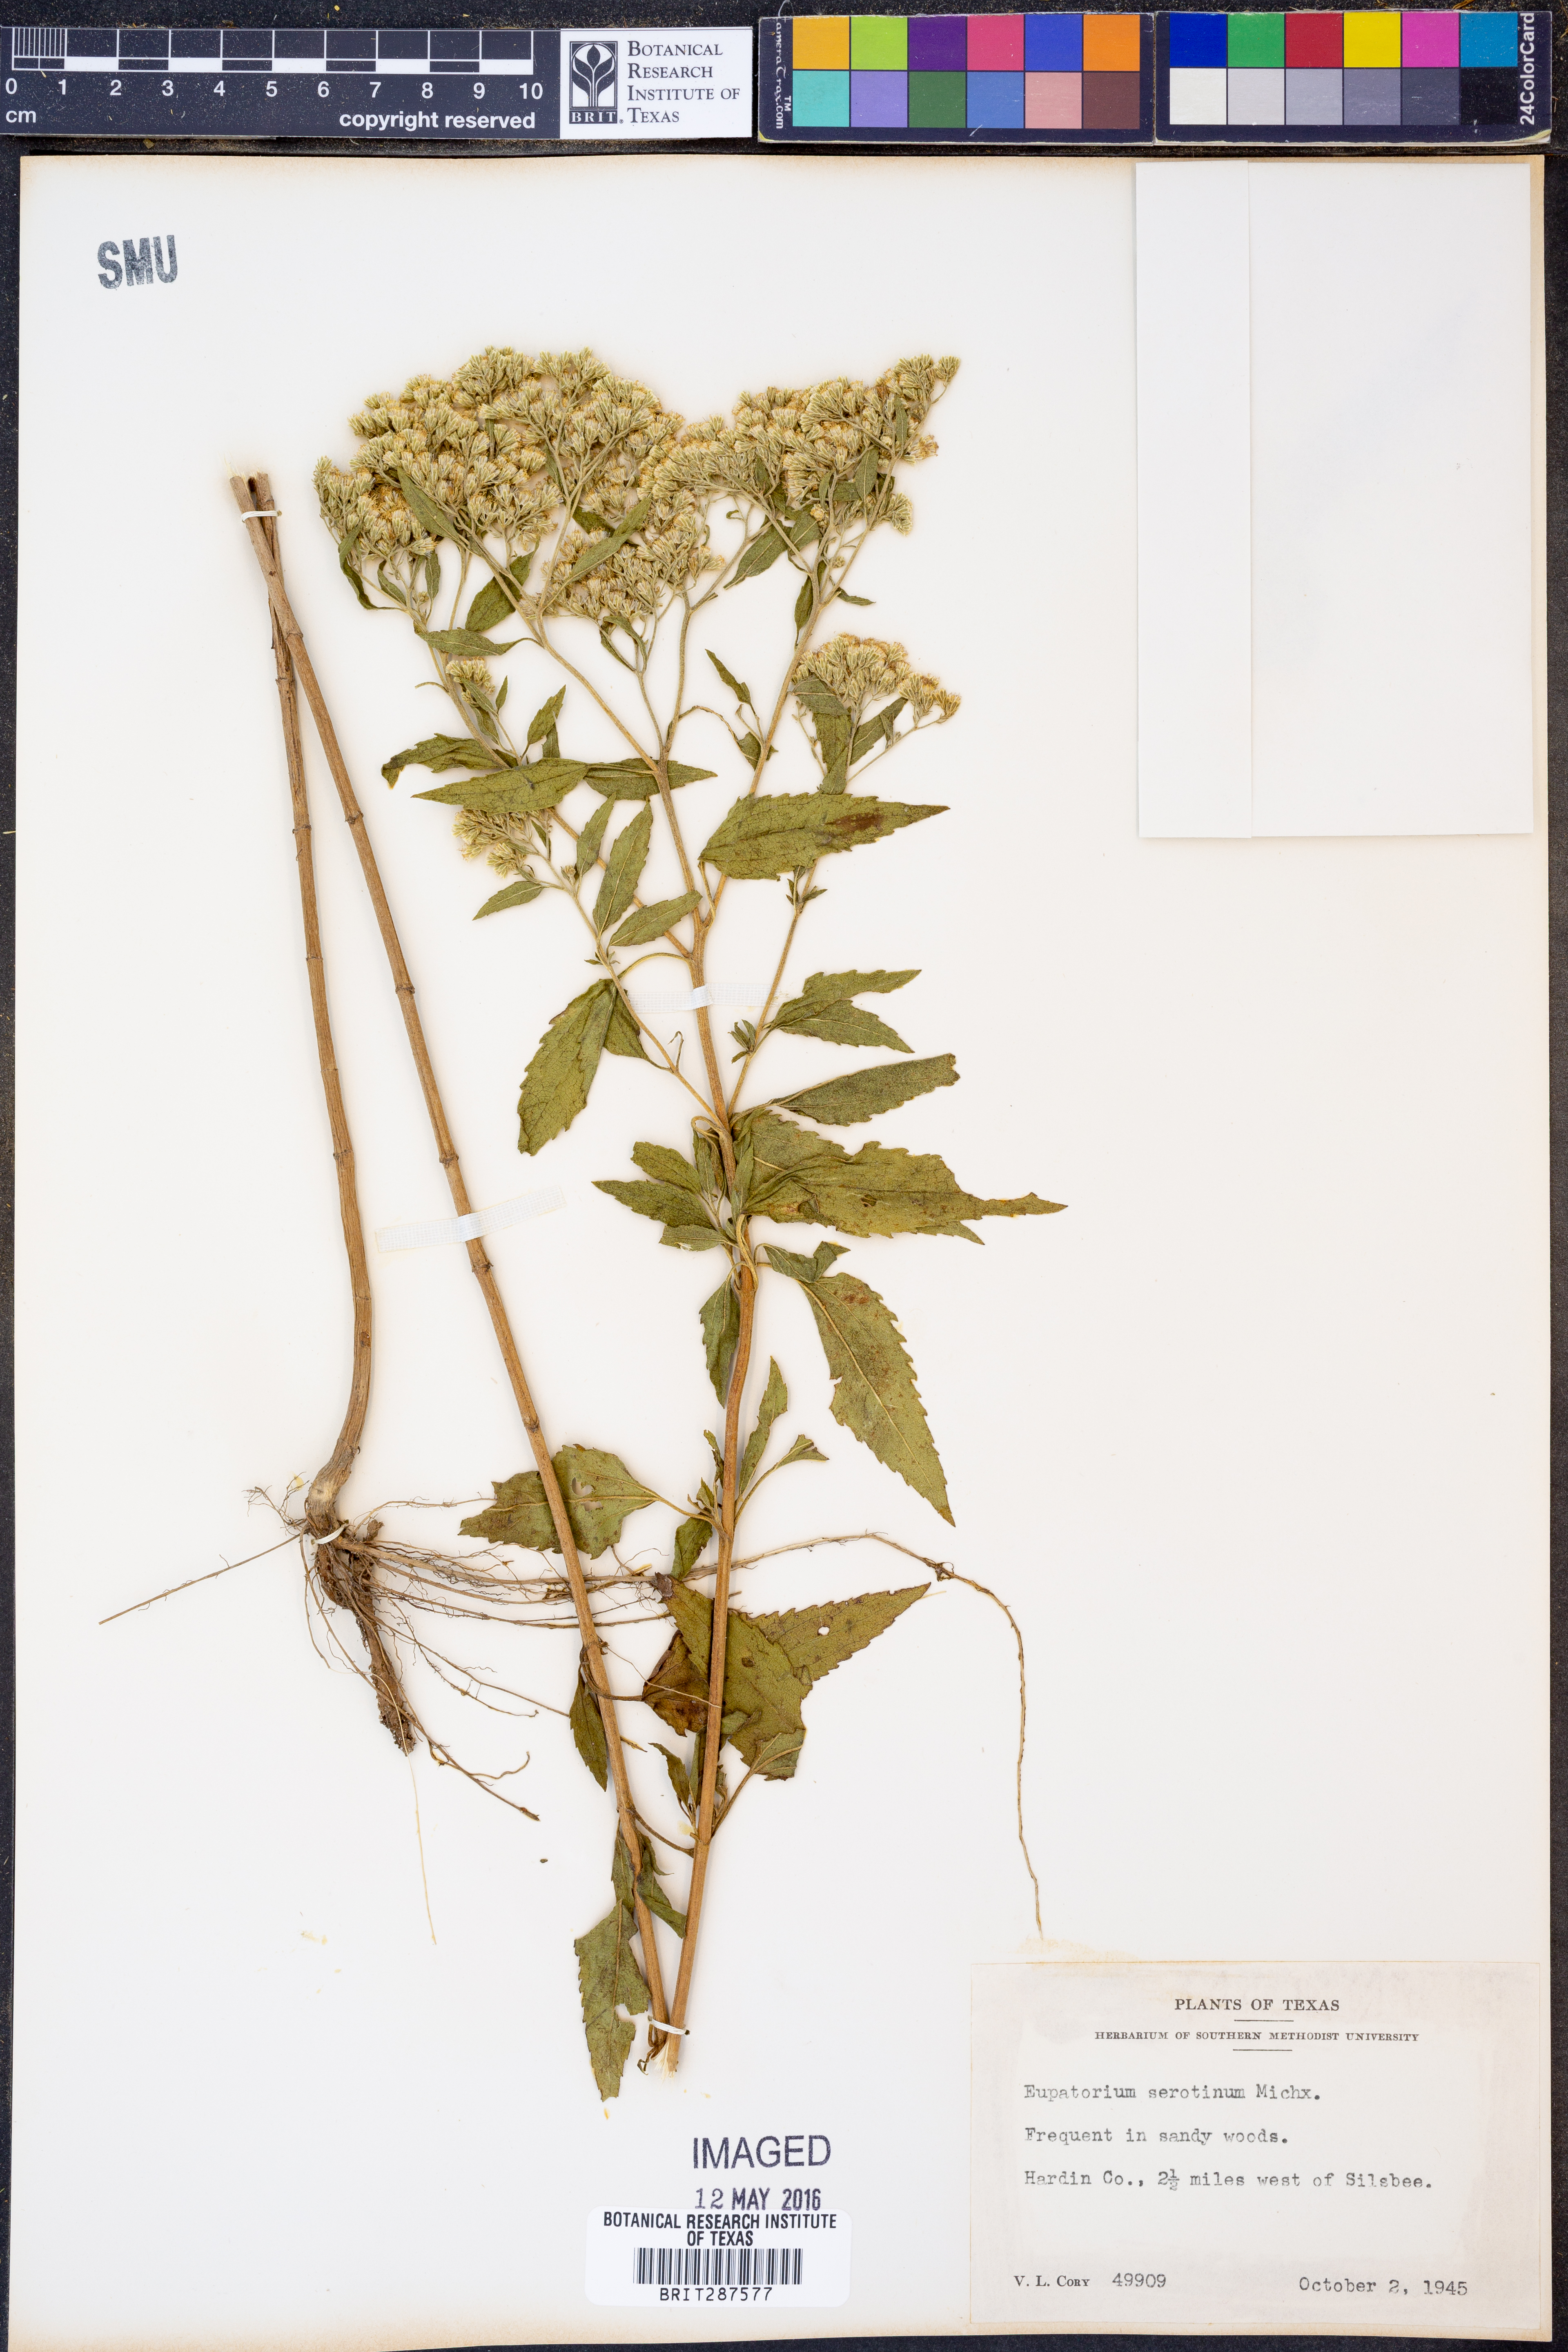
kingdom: Plantae
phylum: Tracheophyta
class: Magnoliopsida
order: Asterales
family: Asteraceae
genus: Eupatorium
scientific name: Eupatorium serotinum
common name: Late boneset
